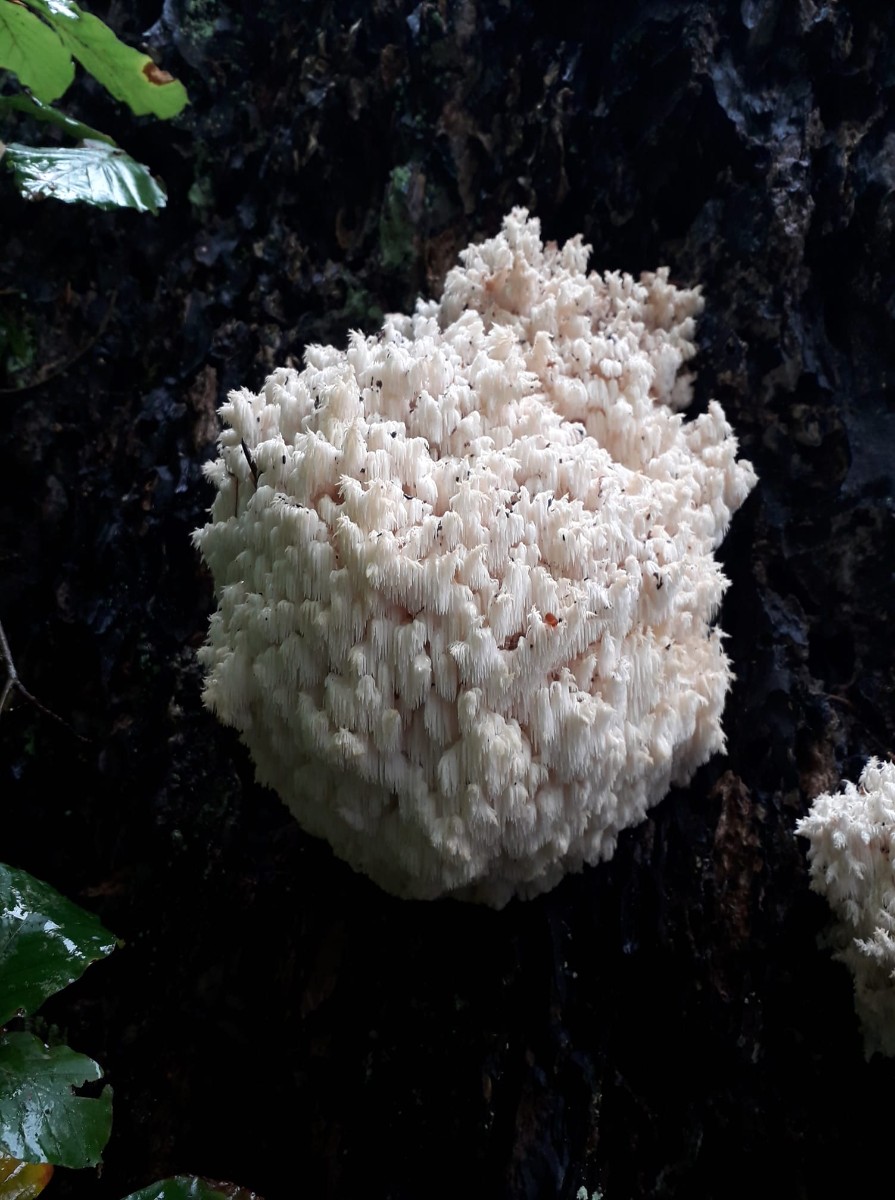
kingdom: Fungi
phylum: Basidiomycota
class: Agaricomycetes
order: Russulales
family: Hericiaceae
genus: Hericium
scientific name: Hericium coralloides
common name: koralpigsvamp
